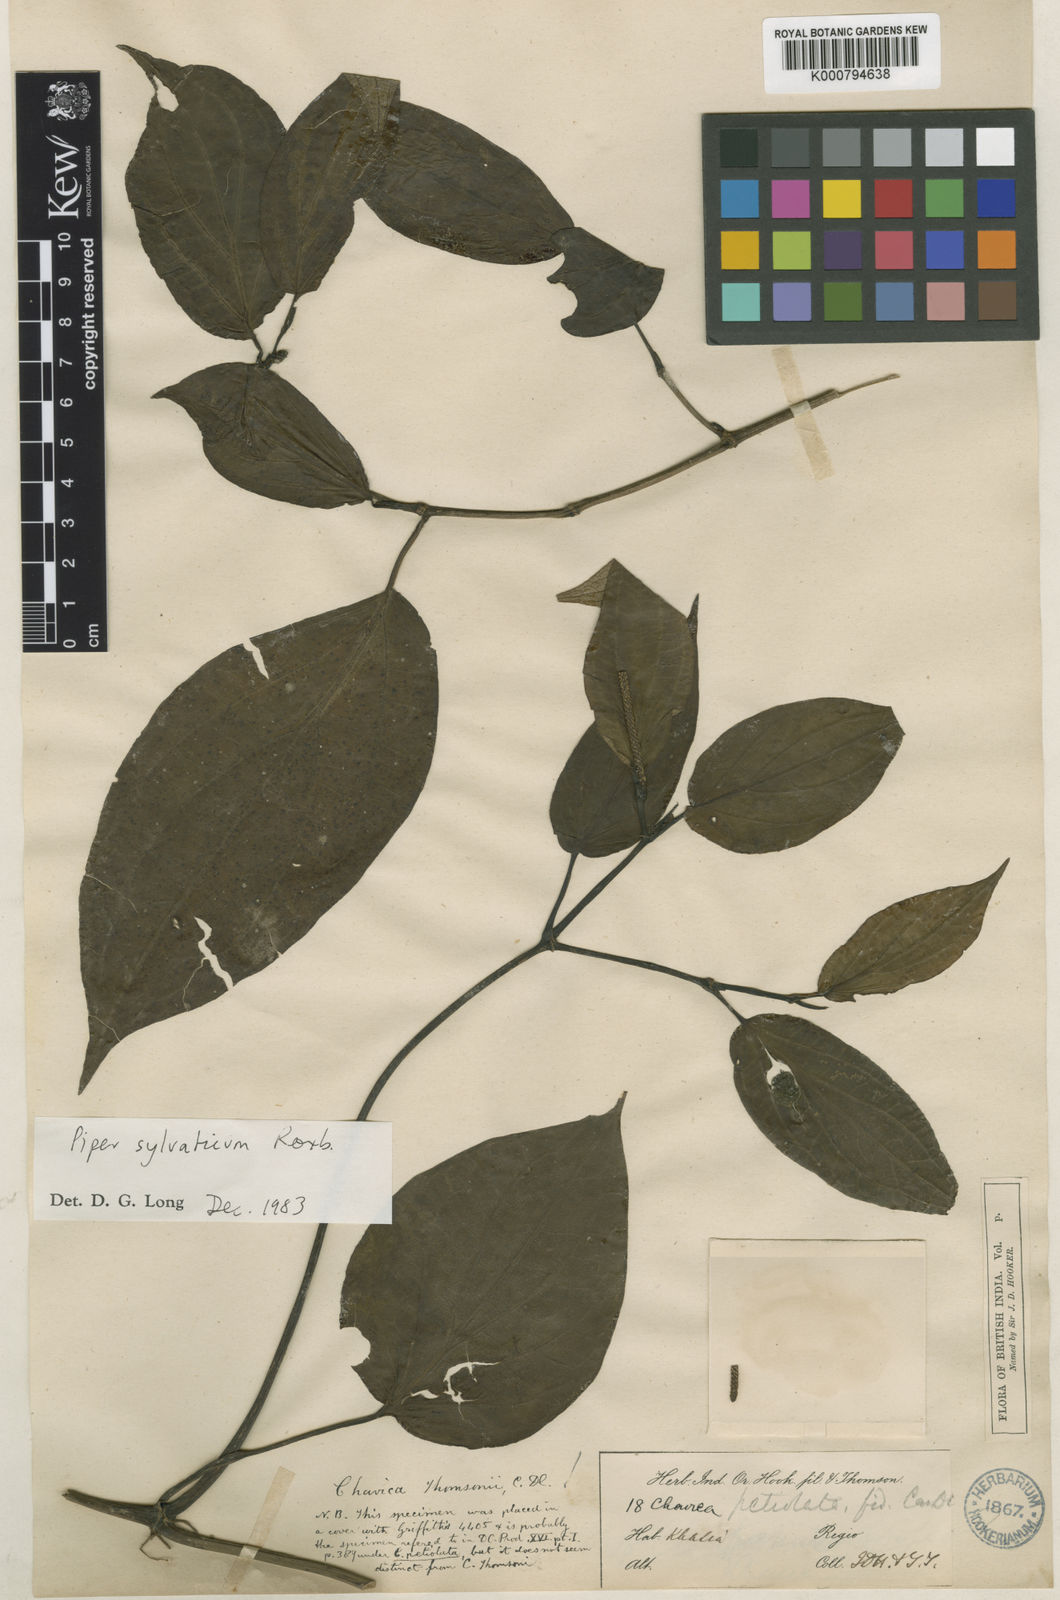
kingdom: Plantae
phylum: Tracheophyta
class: Magnoliopsida
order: Piperales
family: Piperaceae
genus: Piper
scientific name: Piper sylvaticum
